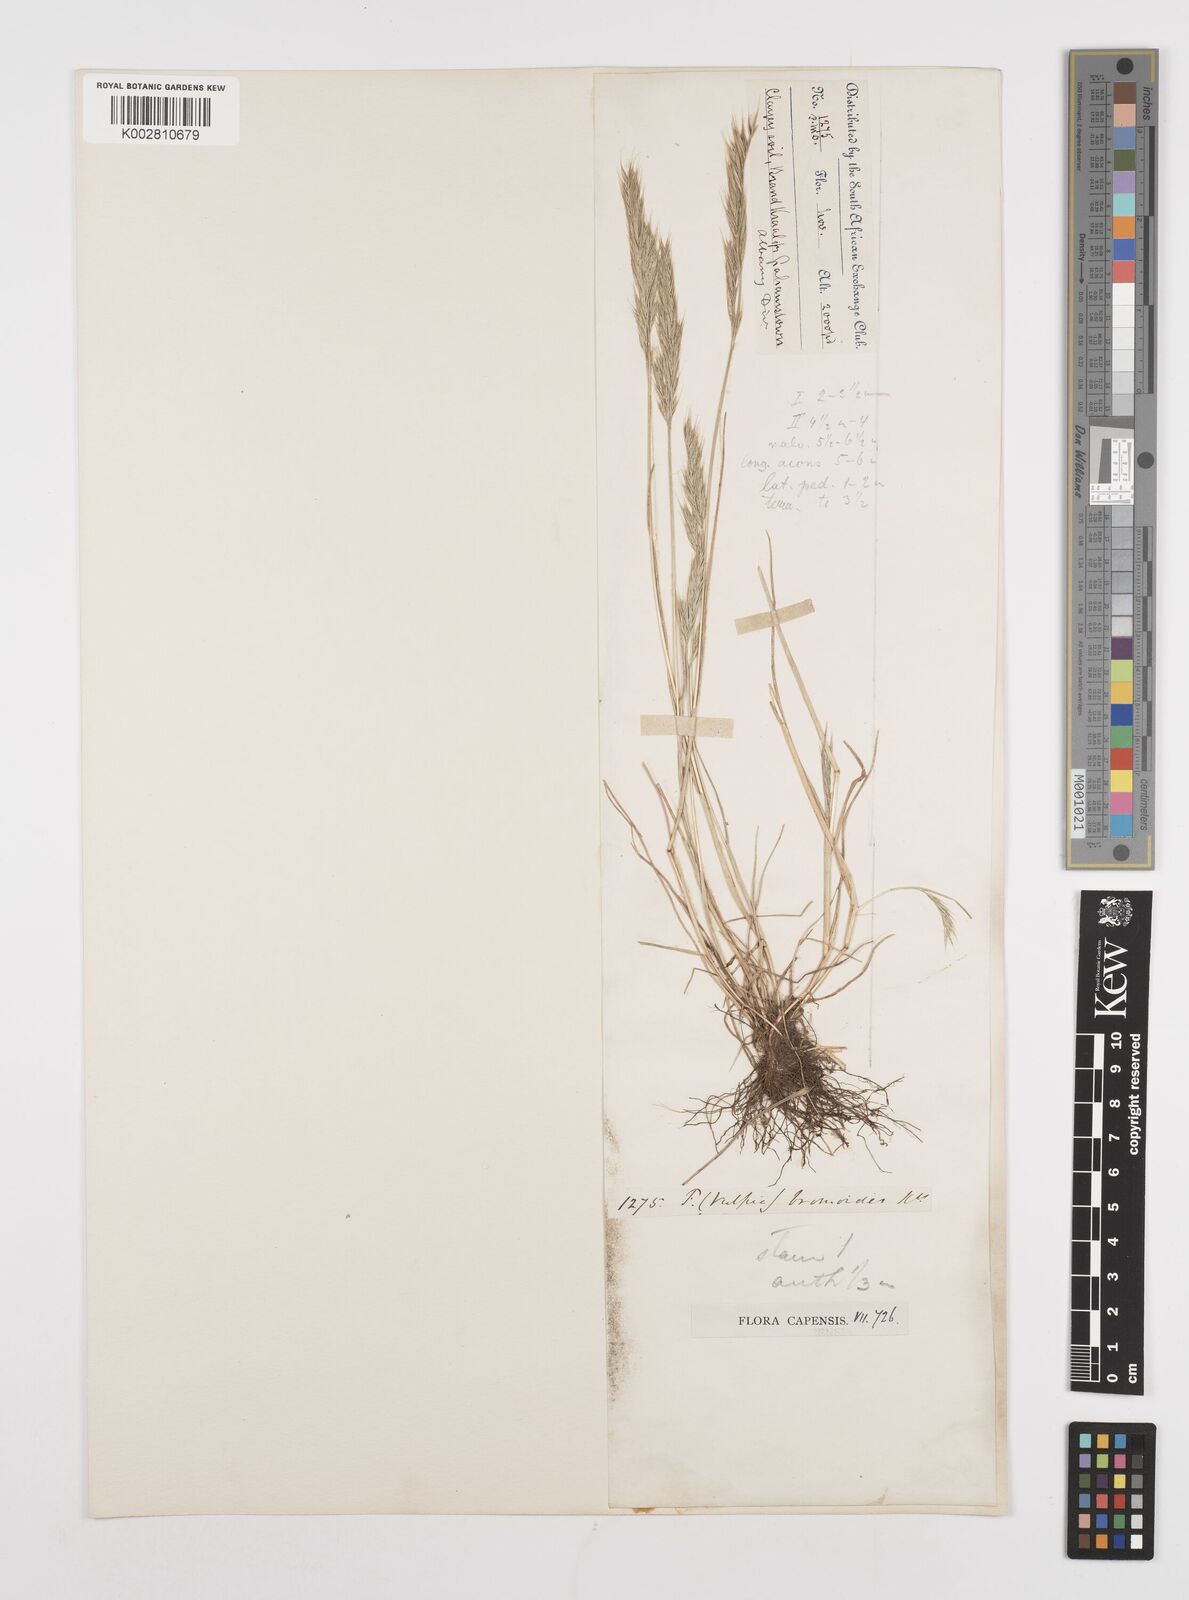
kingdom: Plantae
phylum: Tracheophyta
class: Liliopsida
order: Poales
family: Poaceae
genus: Festuca
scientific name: Festuca bromoides
